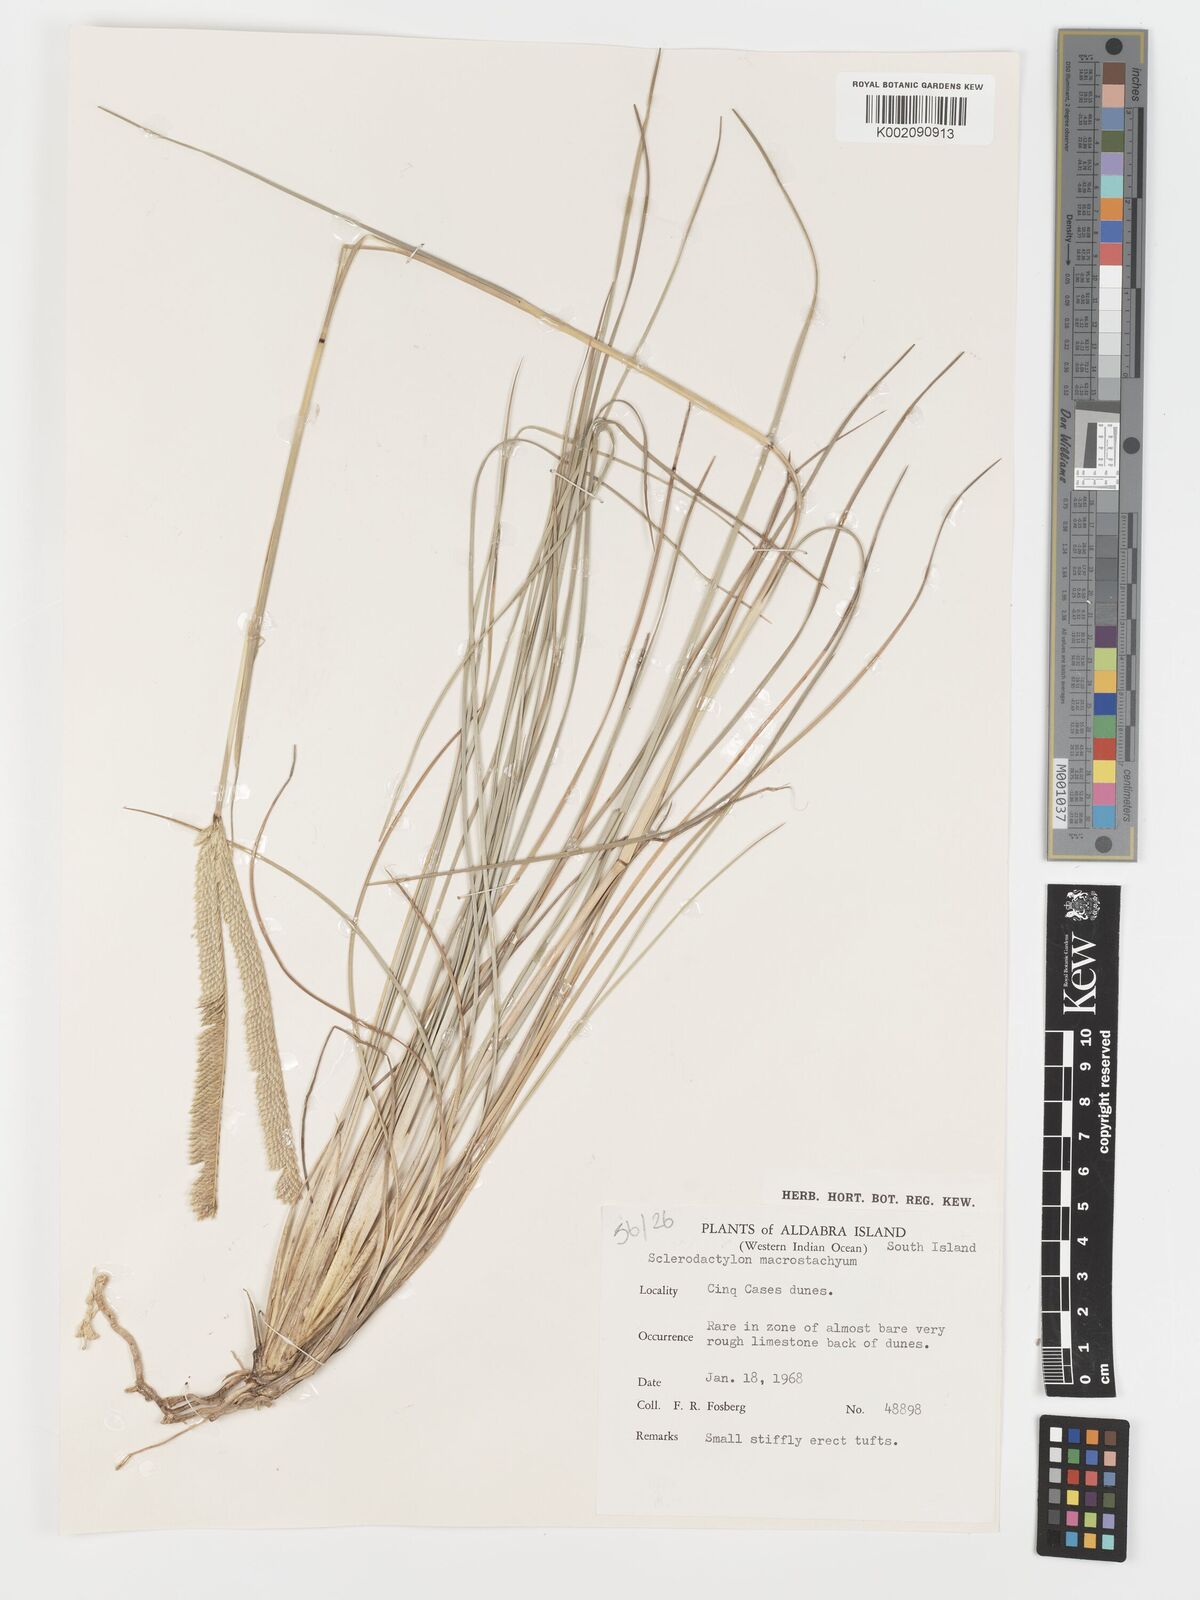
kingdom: Plantae
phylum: Tracheophyta
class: Liliopsida
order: Poales
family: Poaceae
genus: Sclerodactylon
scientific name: Sclerodactylon macrostachyum
